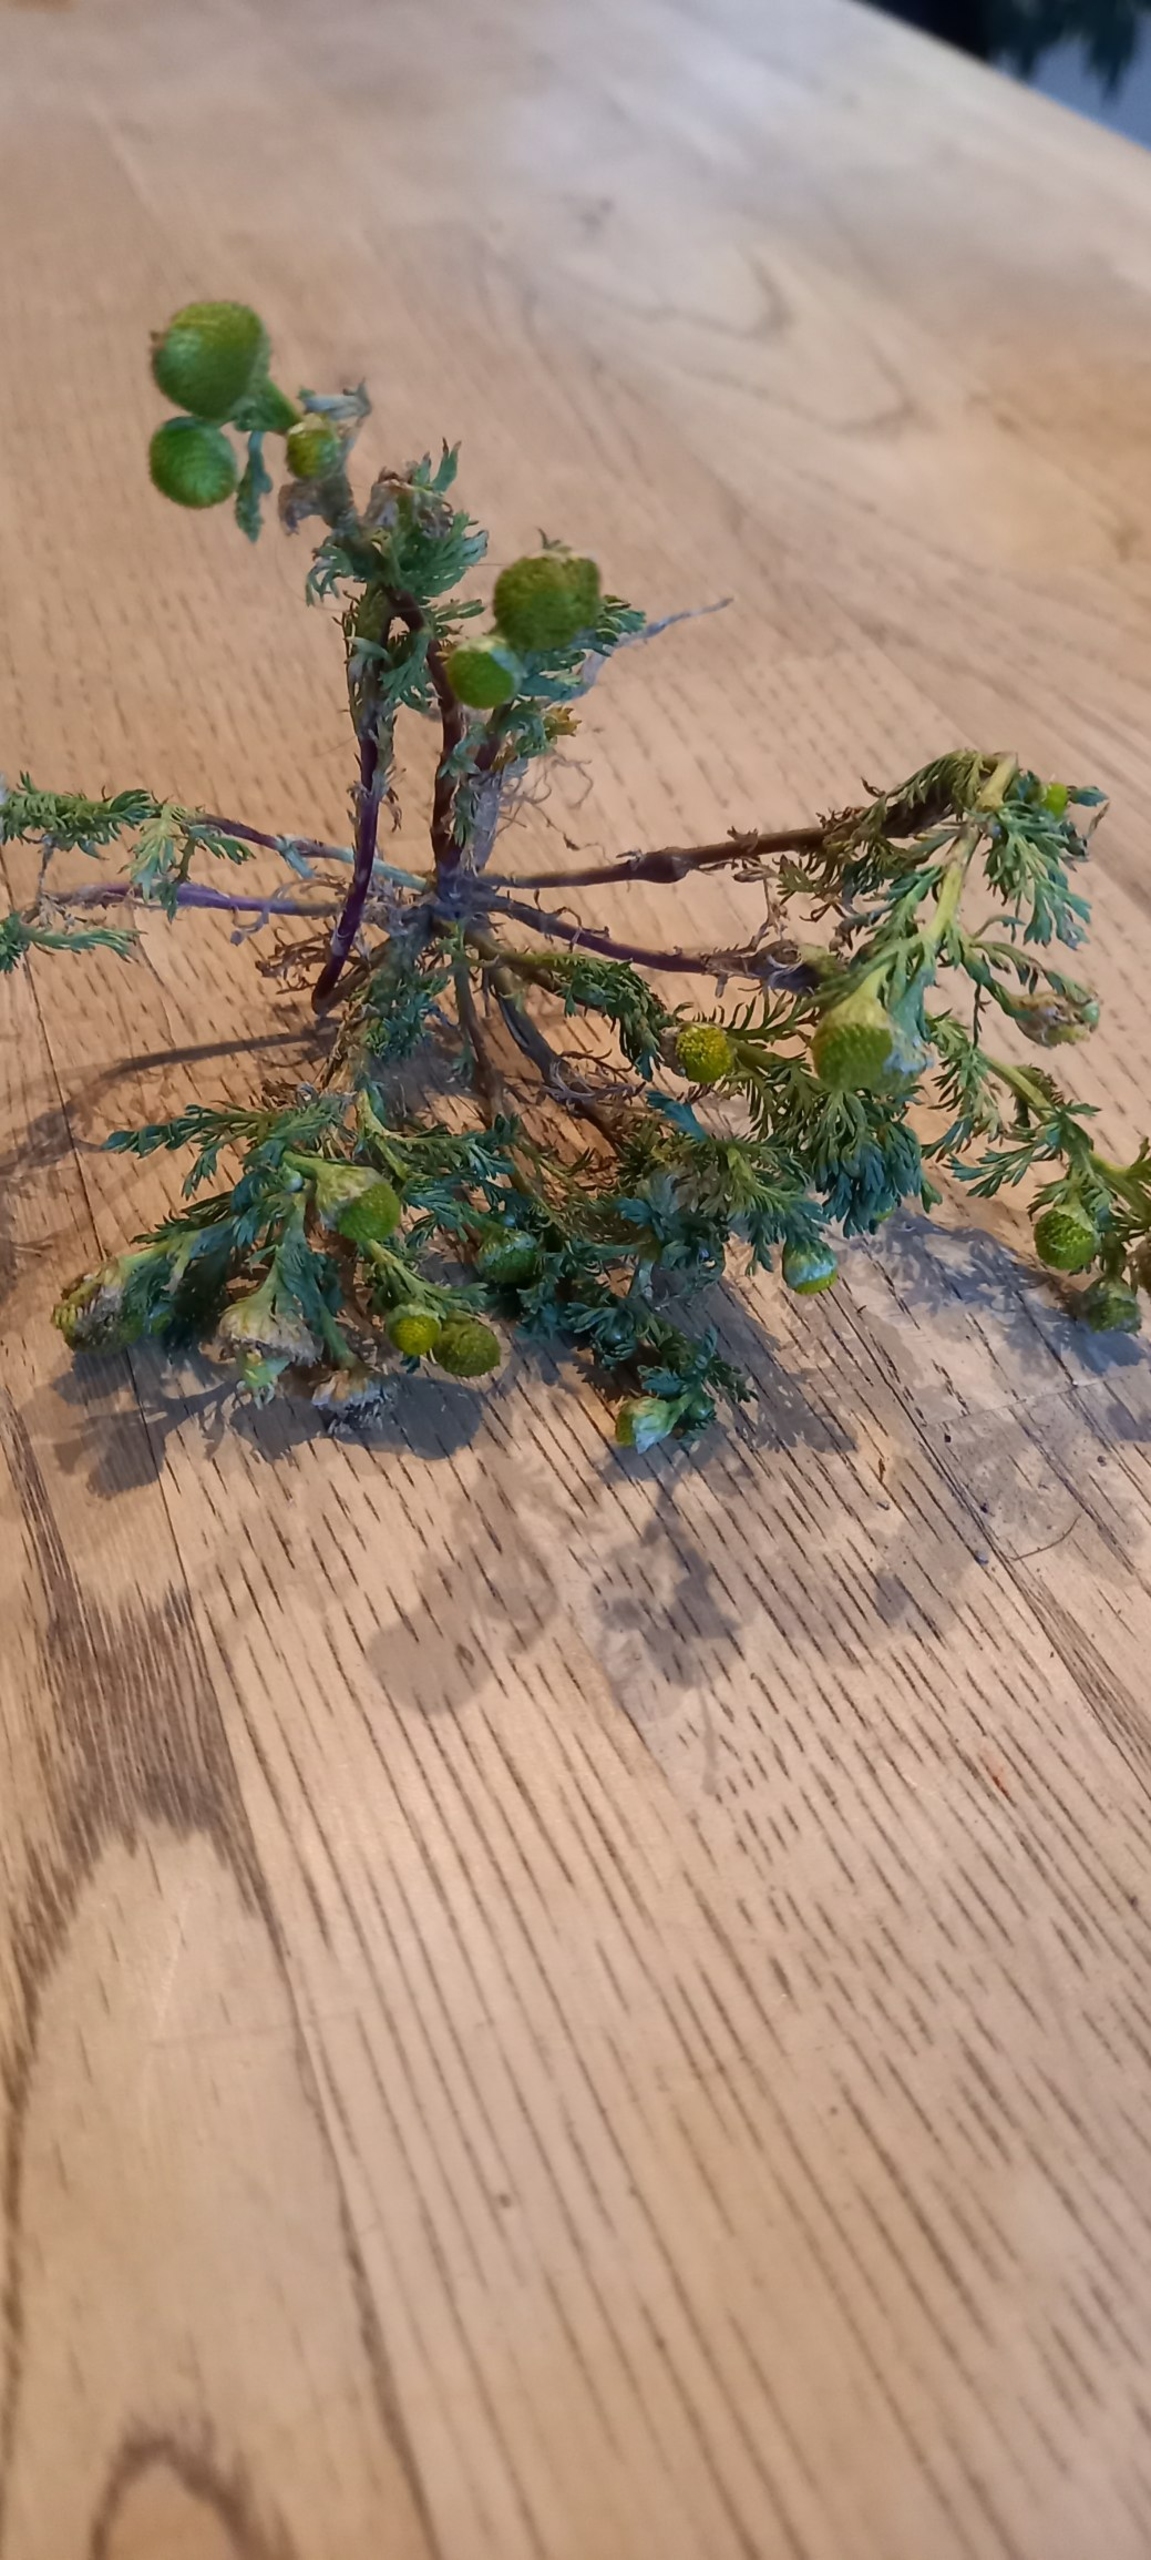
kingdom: Plantae
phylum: Tracheophyta
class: Magnoliopsida
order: Asterales
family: Asteraceae
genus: Matricaria
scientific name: Matricaria discoidea
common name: Skive-kamille
